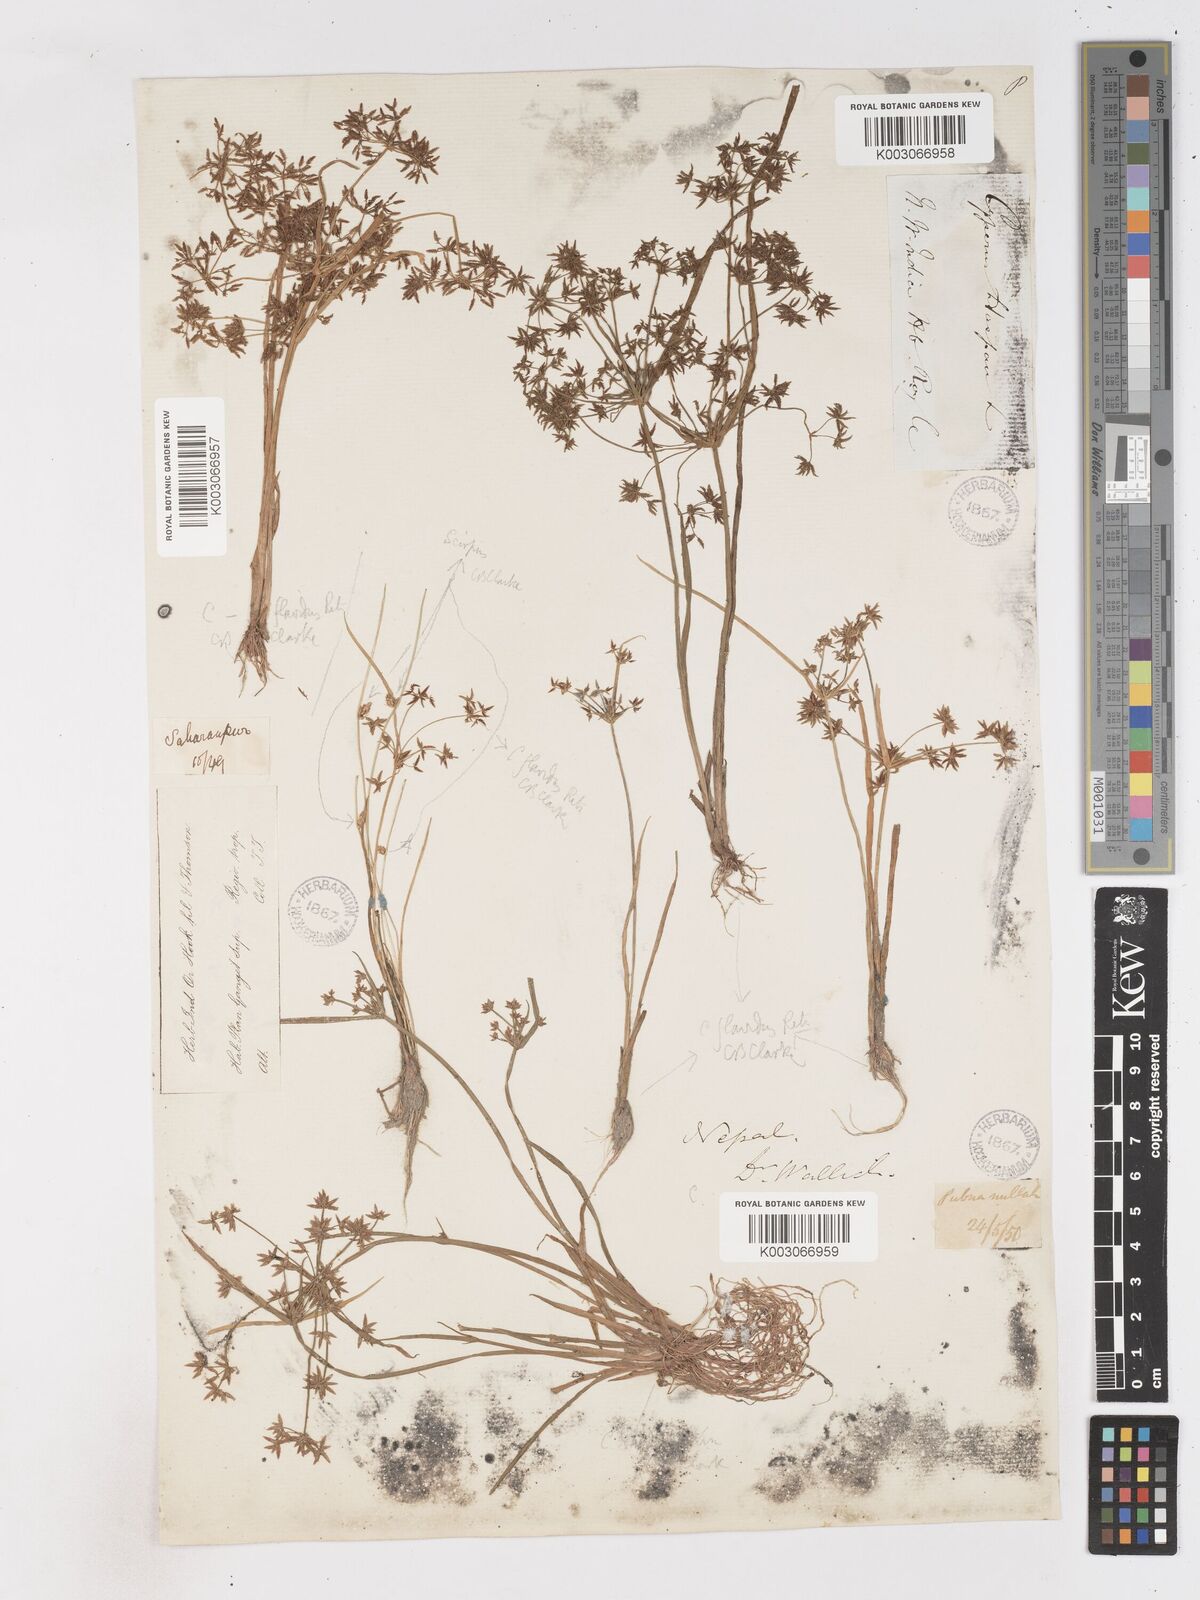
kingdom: Plantae
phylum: Tracheophyta
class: Liliopsida
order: Poales
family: Cyperaceae
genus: Cyperus
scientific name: Cyperus tenuispica
